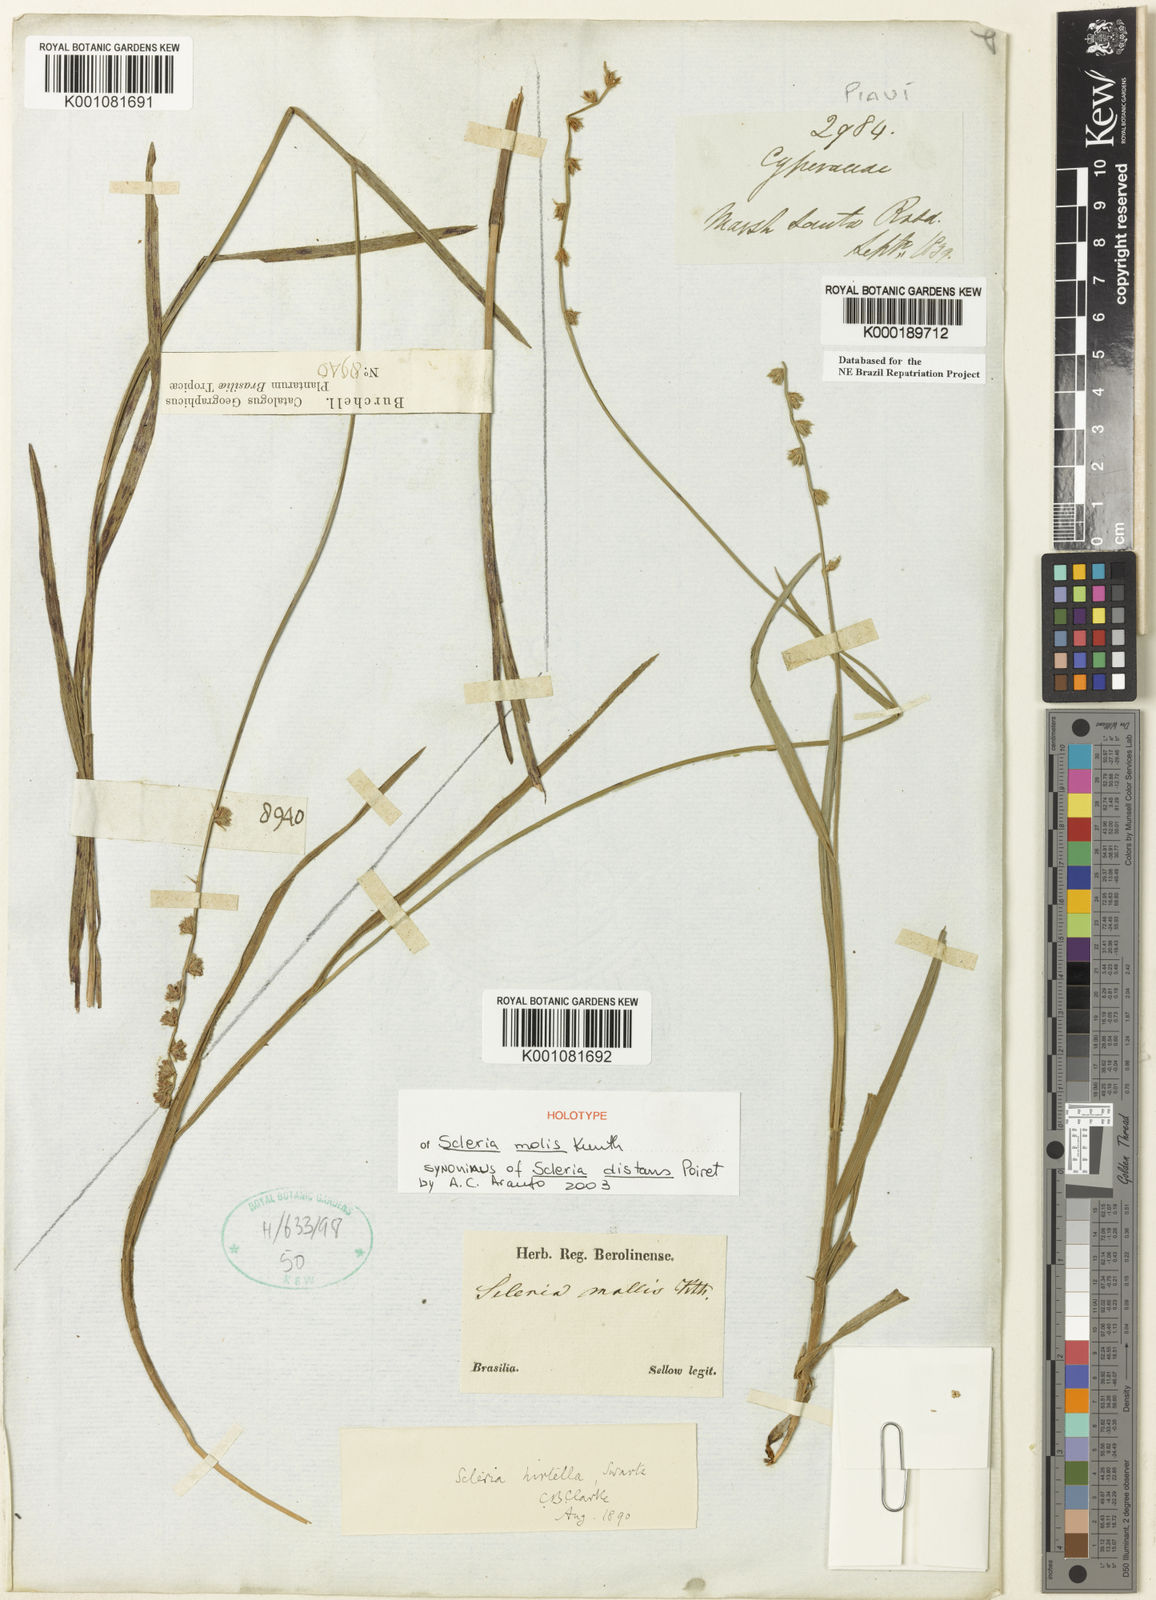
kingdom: Plantae
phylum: Tracheophyta
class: Liliopsida
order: Poales
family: Cyperaceae
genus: Scleria
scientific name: Scleria distans
